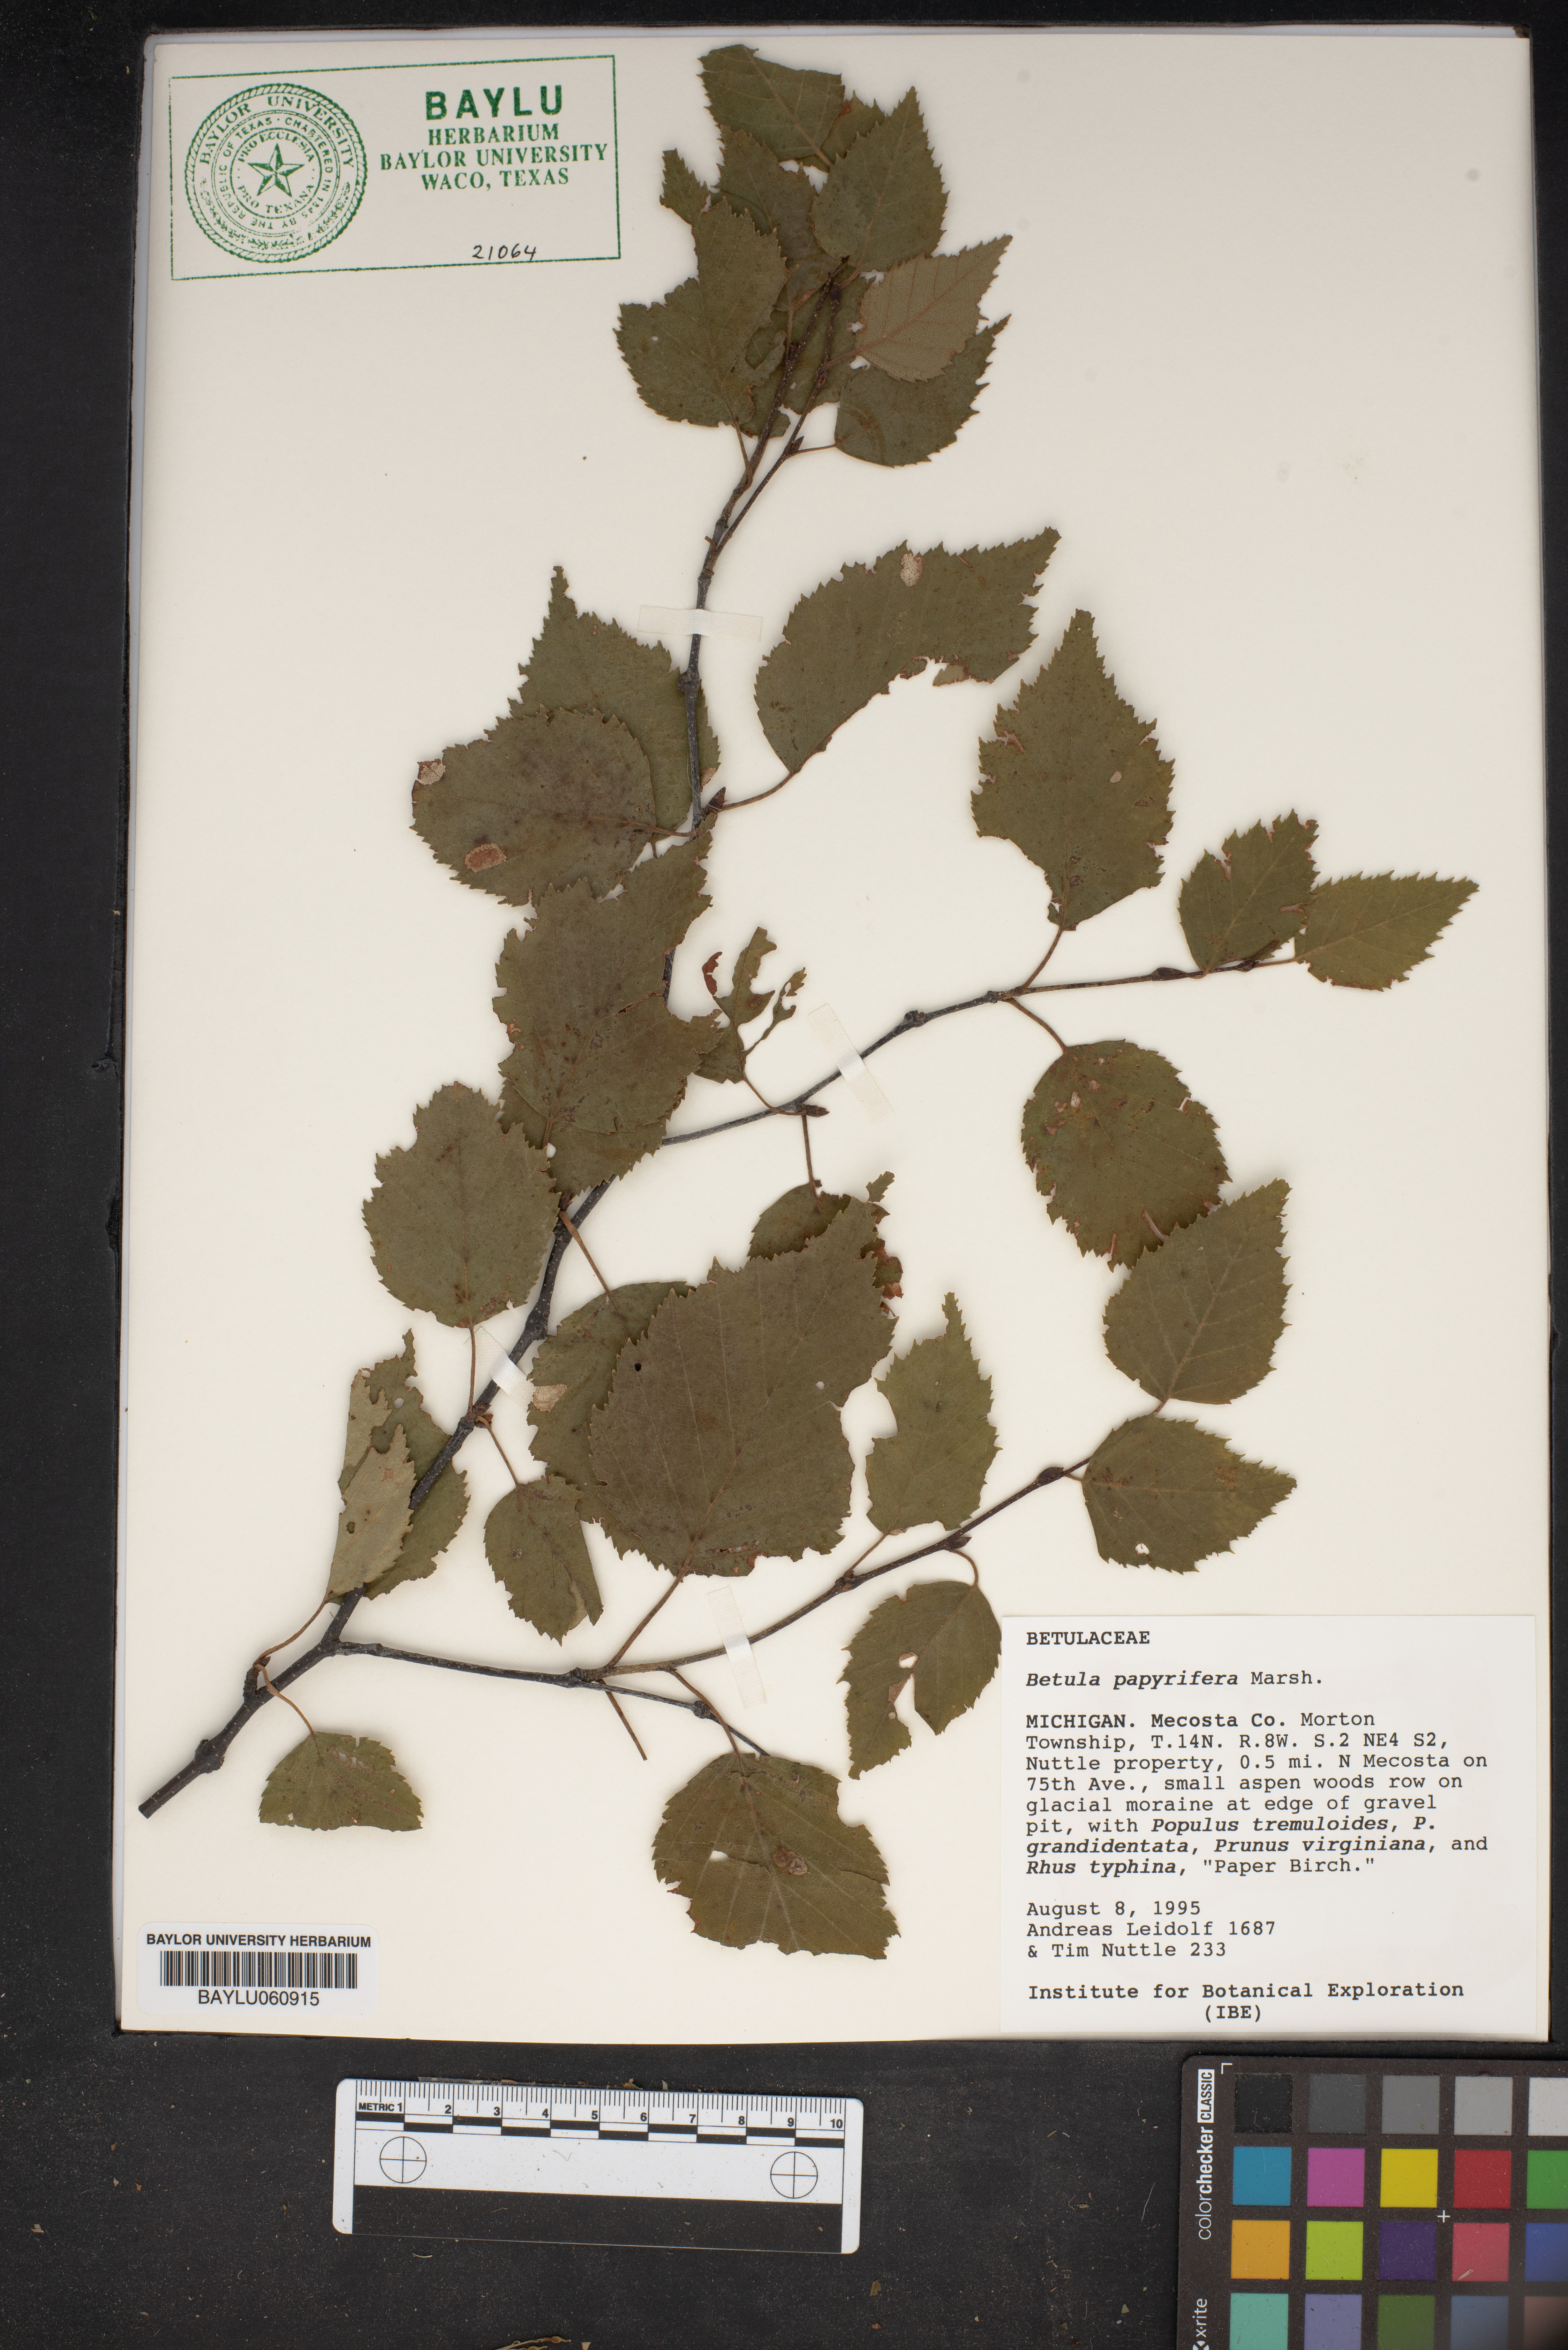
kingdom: Plantae
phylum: Tracheophyta
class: Magnoliopsida
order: Fagales
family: Betulaceae
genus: Betula
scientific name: Betula papyrifera
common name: Paper birch
